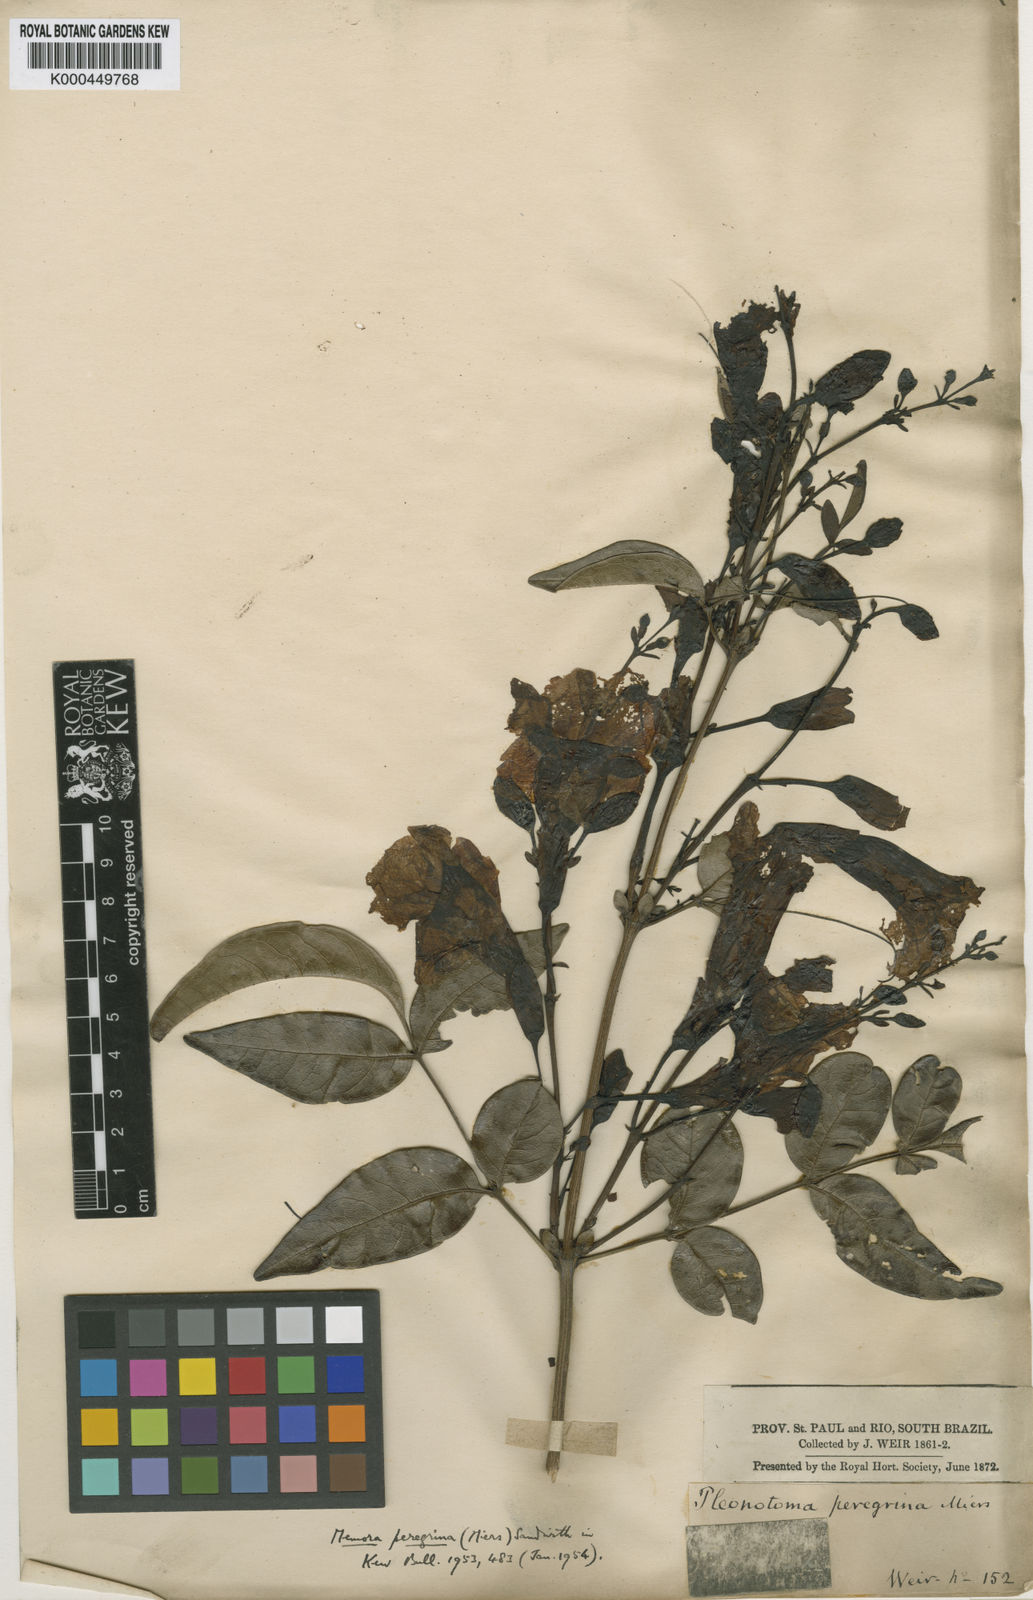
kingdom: Plantae
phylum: Tracheophyta
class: Magnoliopsida
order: Lamiales
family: Bignoniaceae
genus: Adenocalymma
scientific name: Adenocalymma peregrinum
